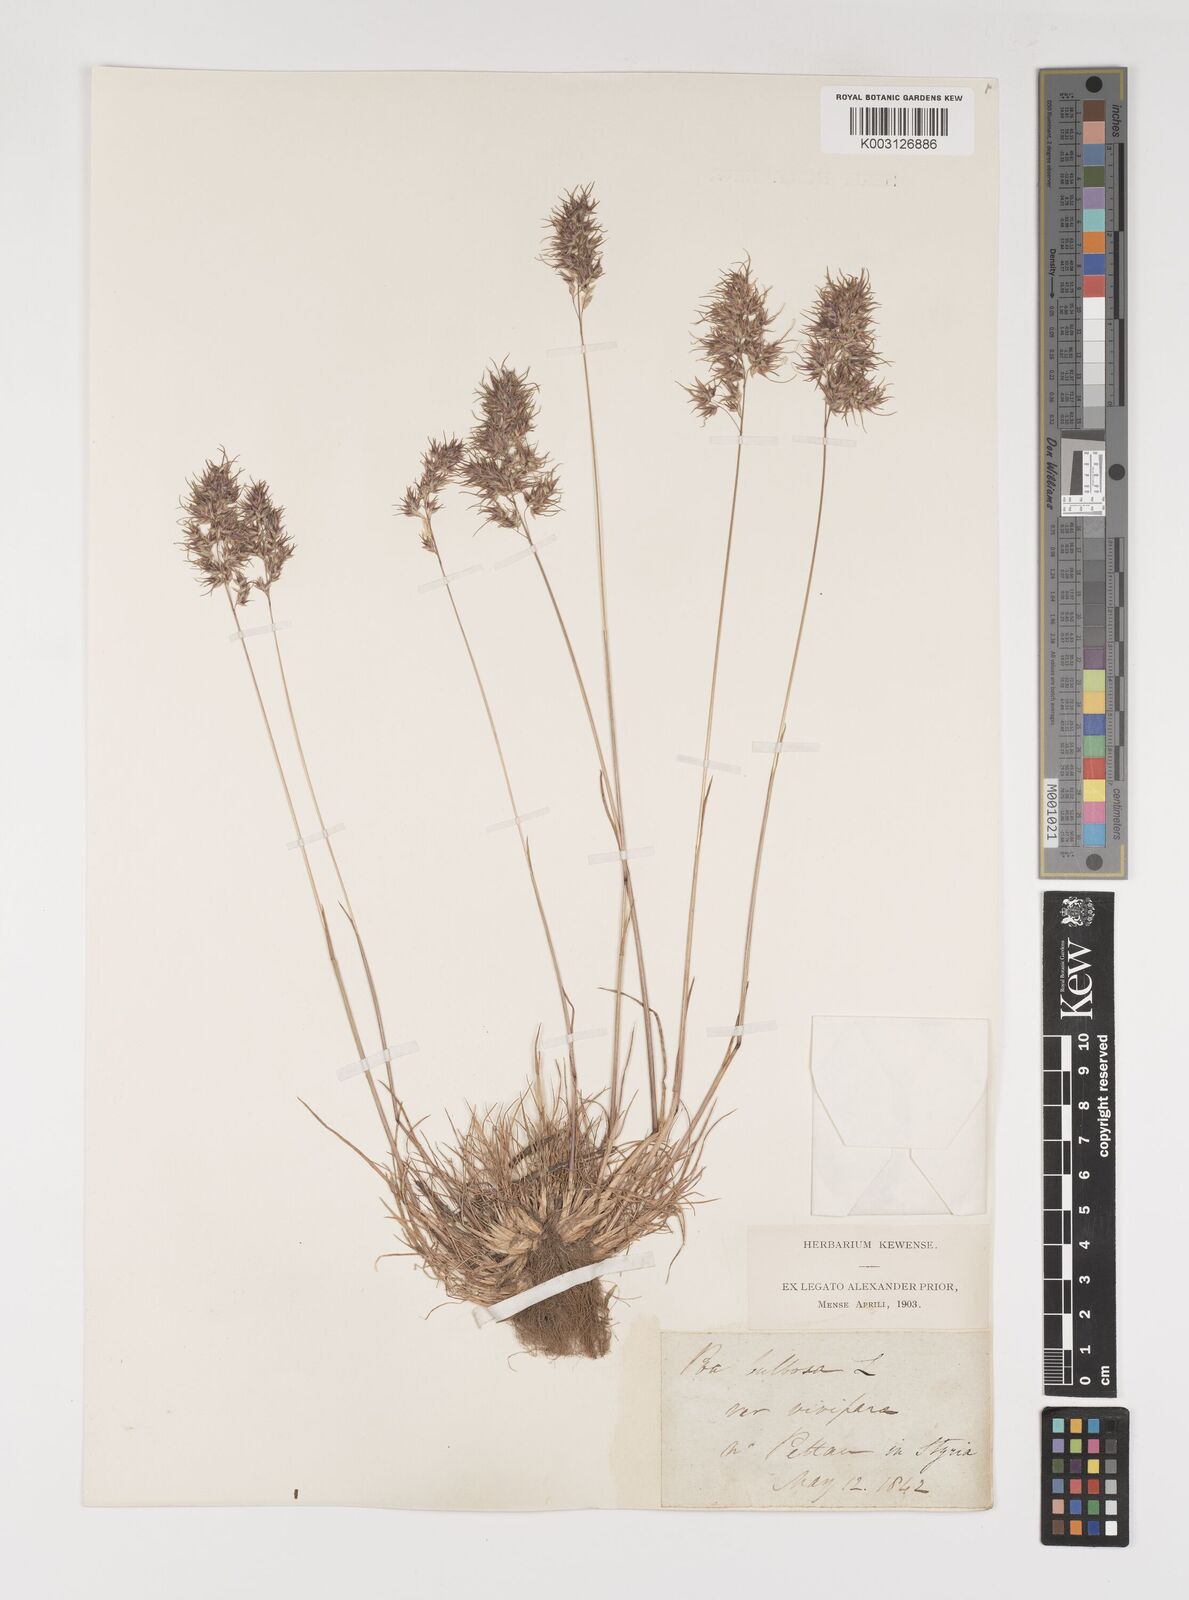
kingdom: Plantae
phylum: Tracheophyta
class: Liliopsida
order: Poales
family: Poaceae
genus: Poa
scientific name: Poa bulbosa
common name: Bulbous bluegrass
